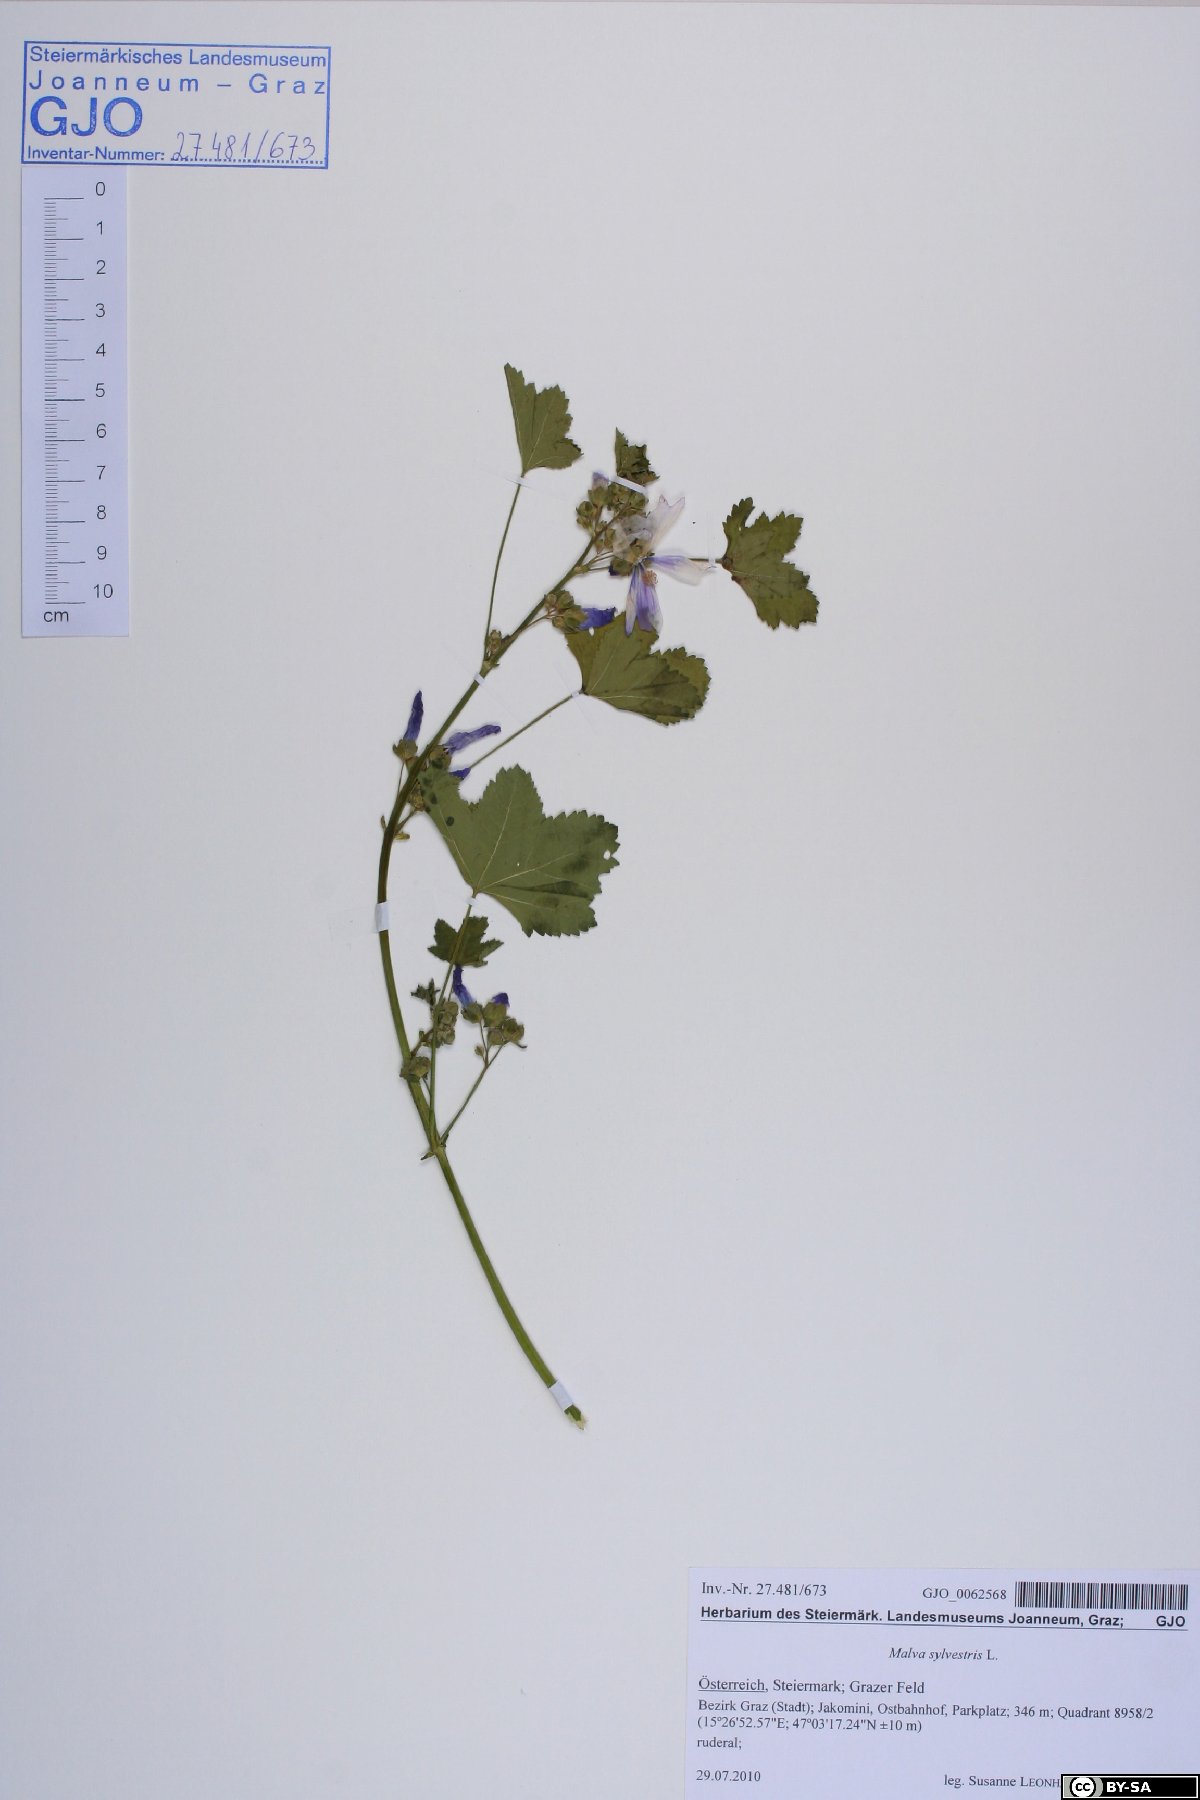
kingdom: Plantae
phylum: Tracheophyta
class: Magnoliopsida
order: Malvales
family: Malvaceae
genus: Malva
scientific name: Malva sylvestris
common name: Common mallow
